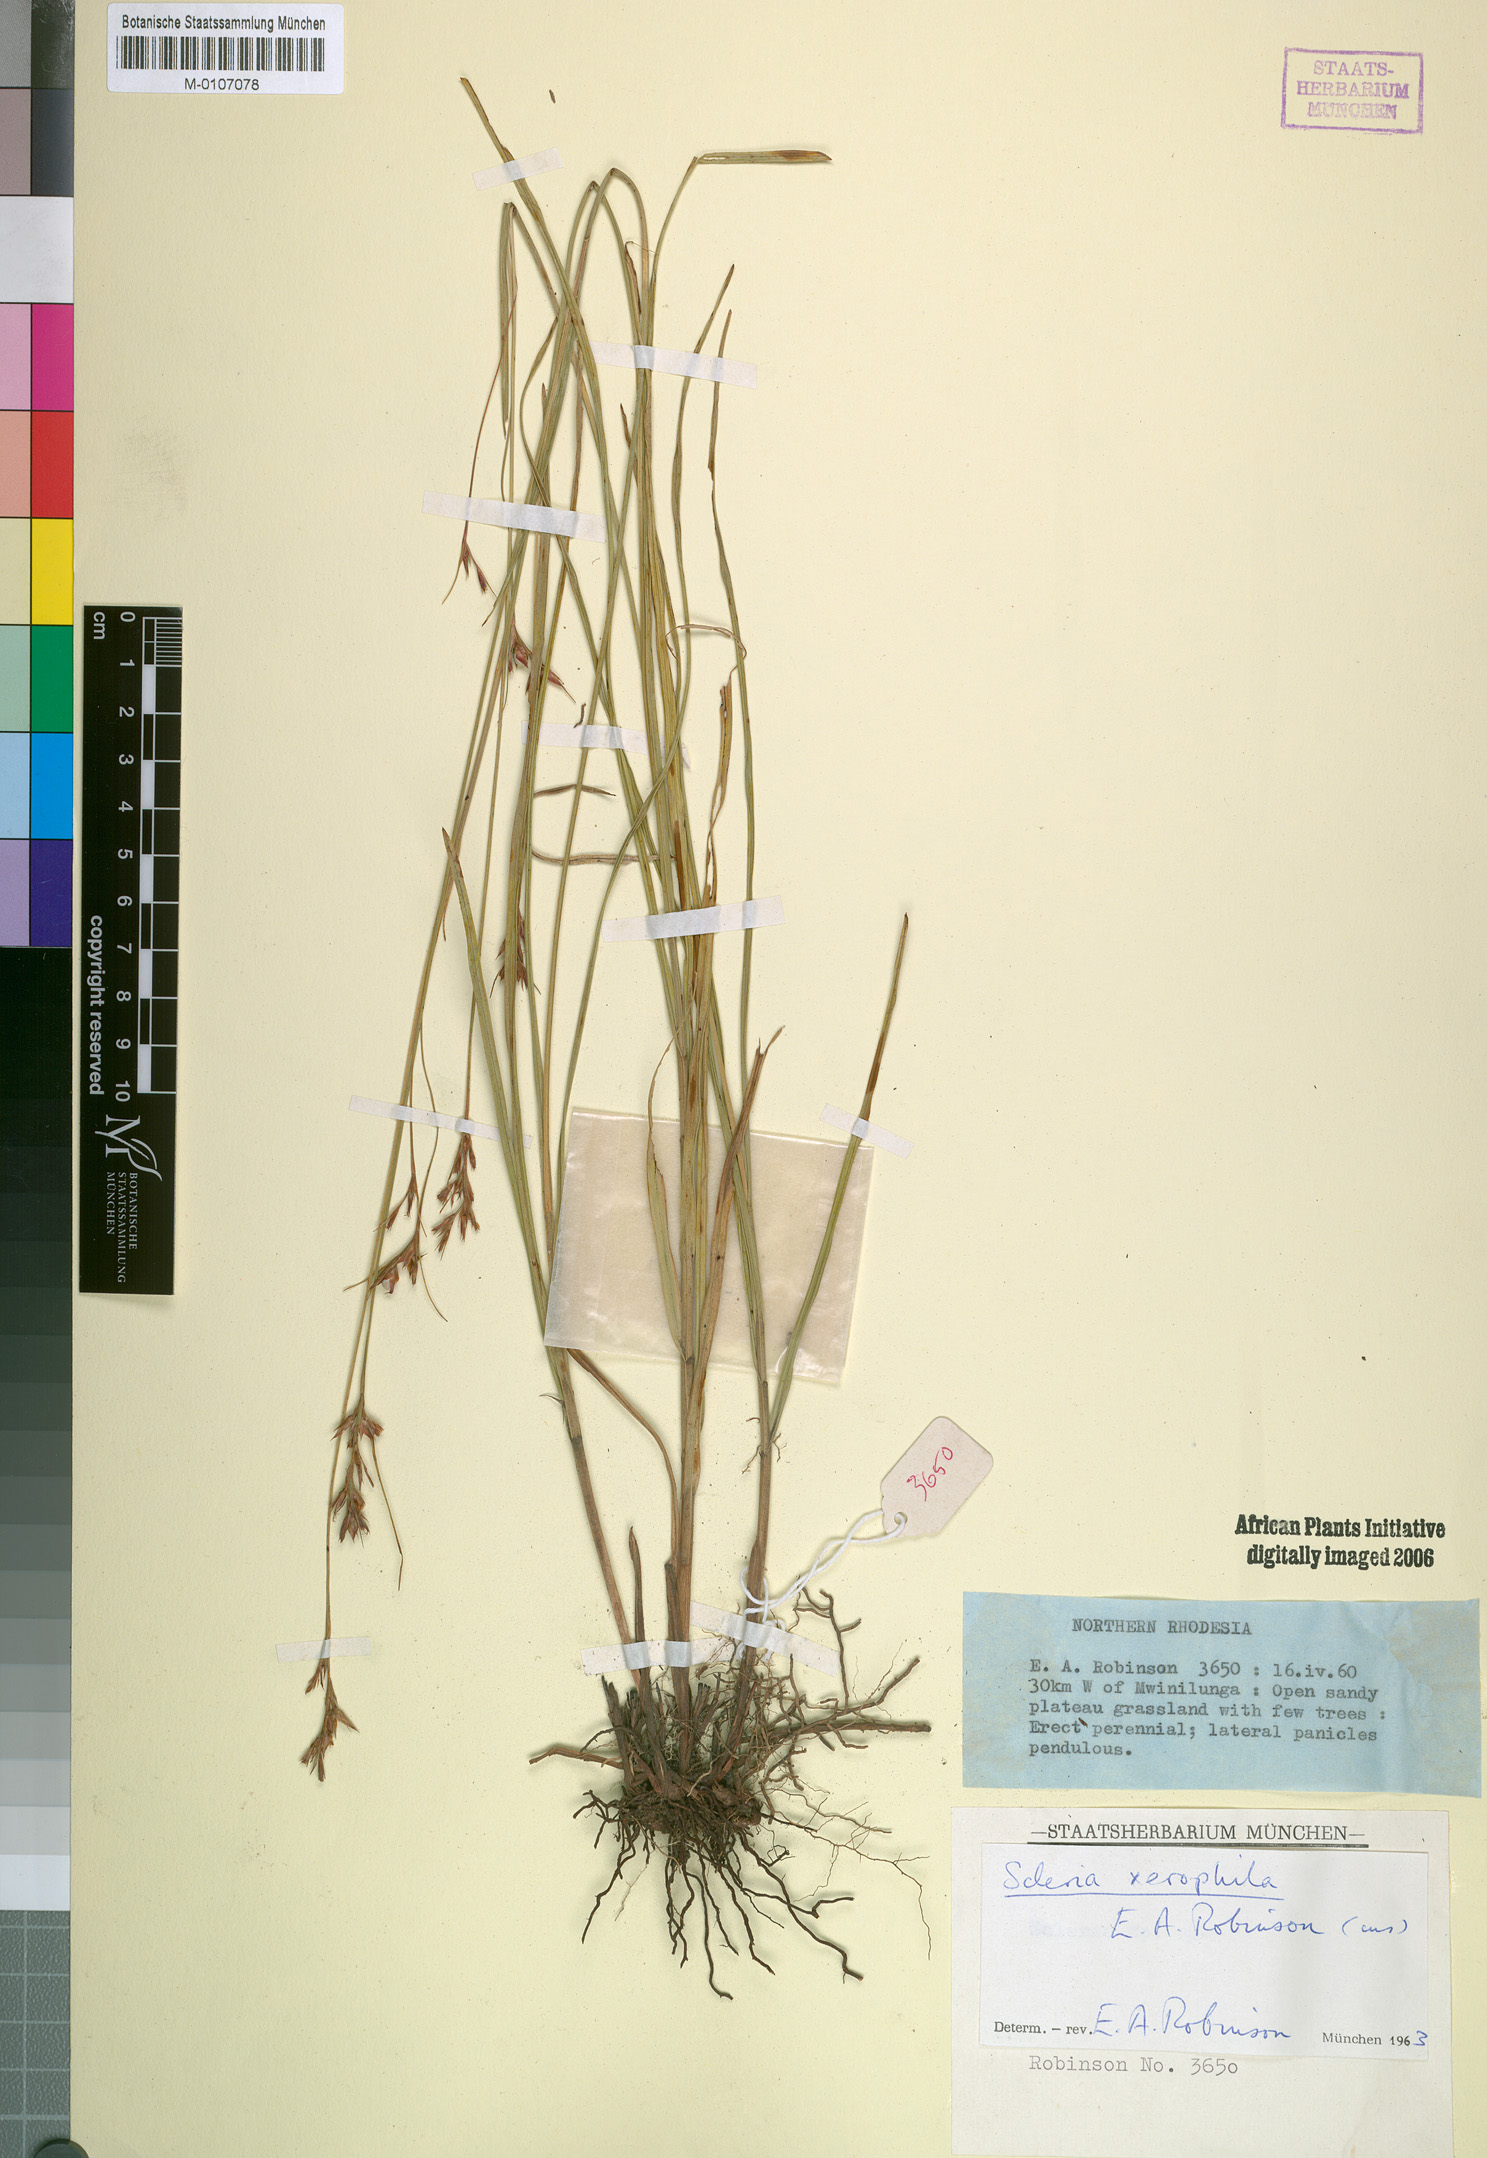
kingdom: Plantae
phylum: Tracheophyta
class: Liliopsida
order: Poales
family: Cyperaceae
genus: Scleria
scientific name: Scleria xerophila
